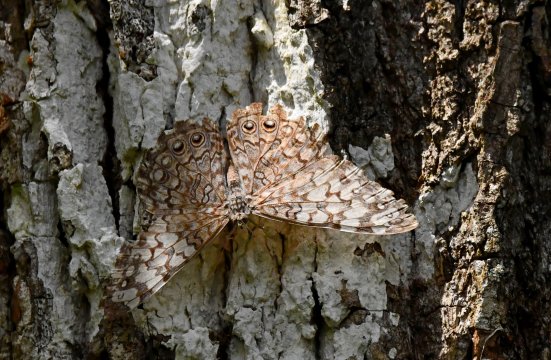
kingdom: Animalia
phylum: Arthropoda
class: Insecta
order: Lepidoptera
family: Nymphalidae
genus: Hamadryas
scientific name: Hamadryas
